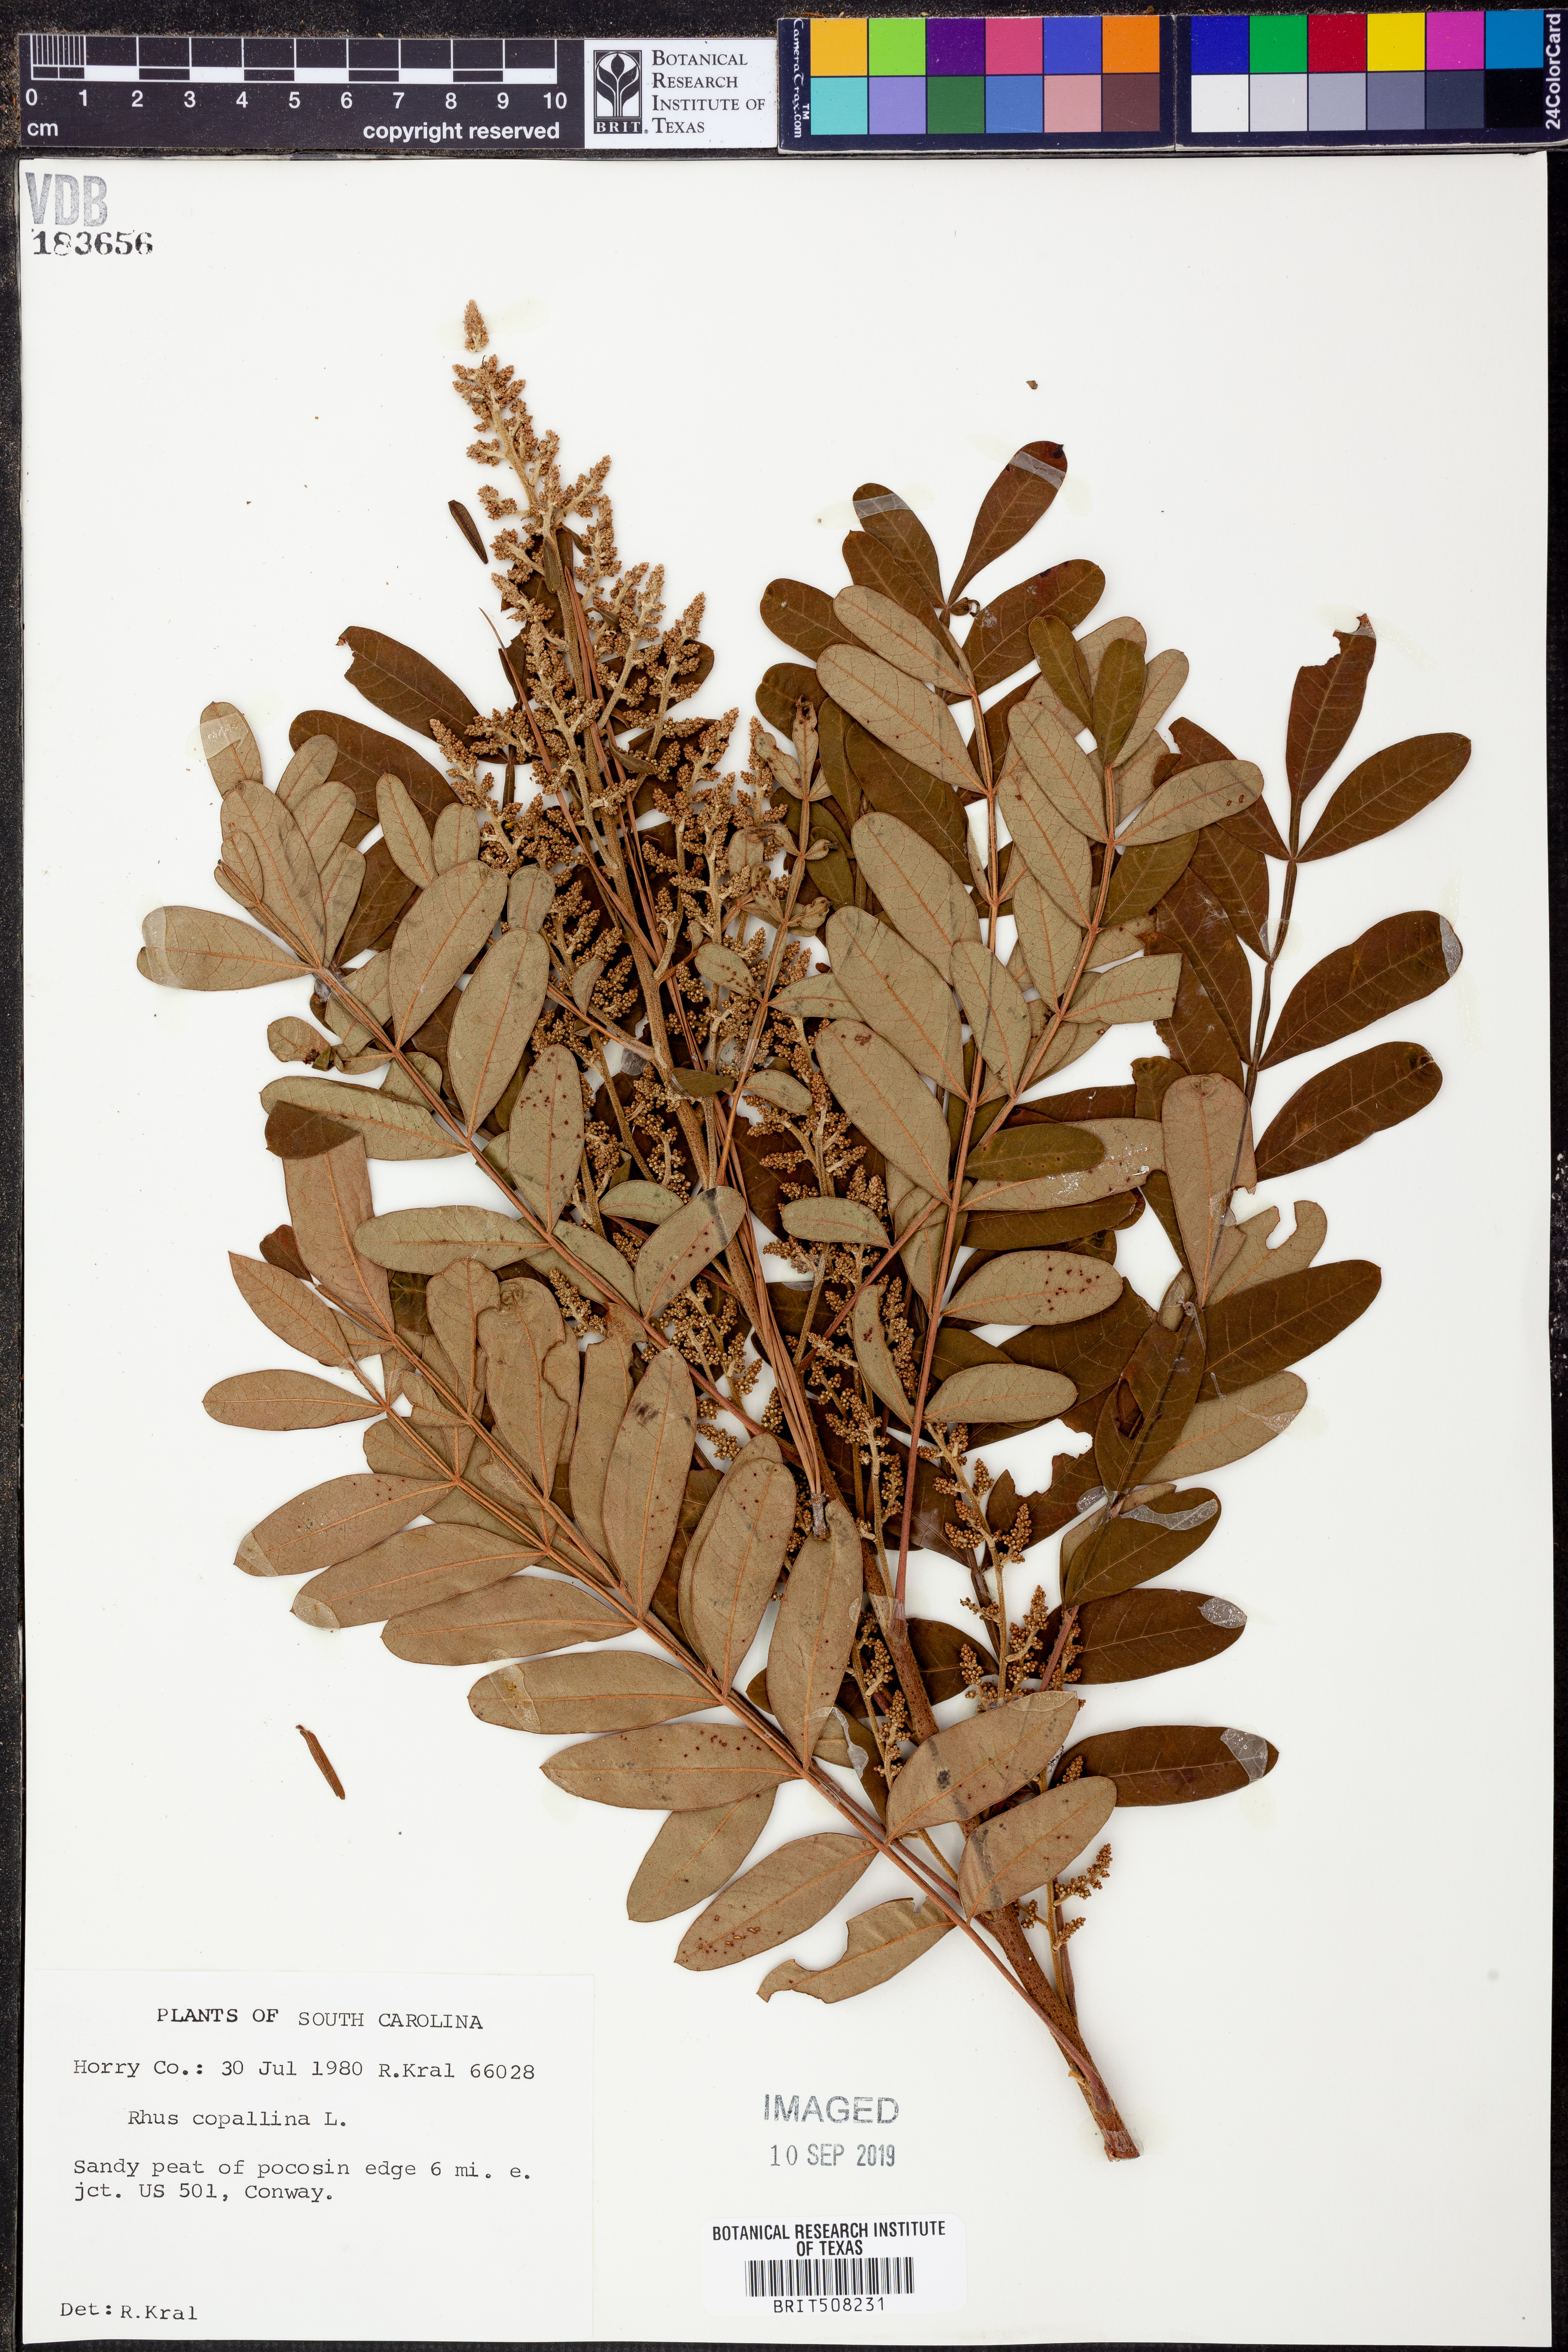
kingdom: Plantae
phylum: Tracheophyta
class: Magnoliopsida
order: Sapindales
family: Anacardiaceae
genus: Rhus
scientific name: Rhus copallina
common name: Shining sumac
